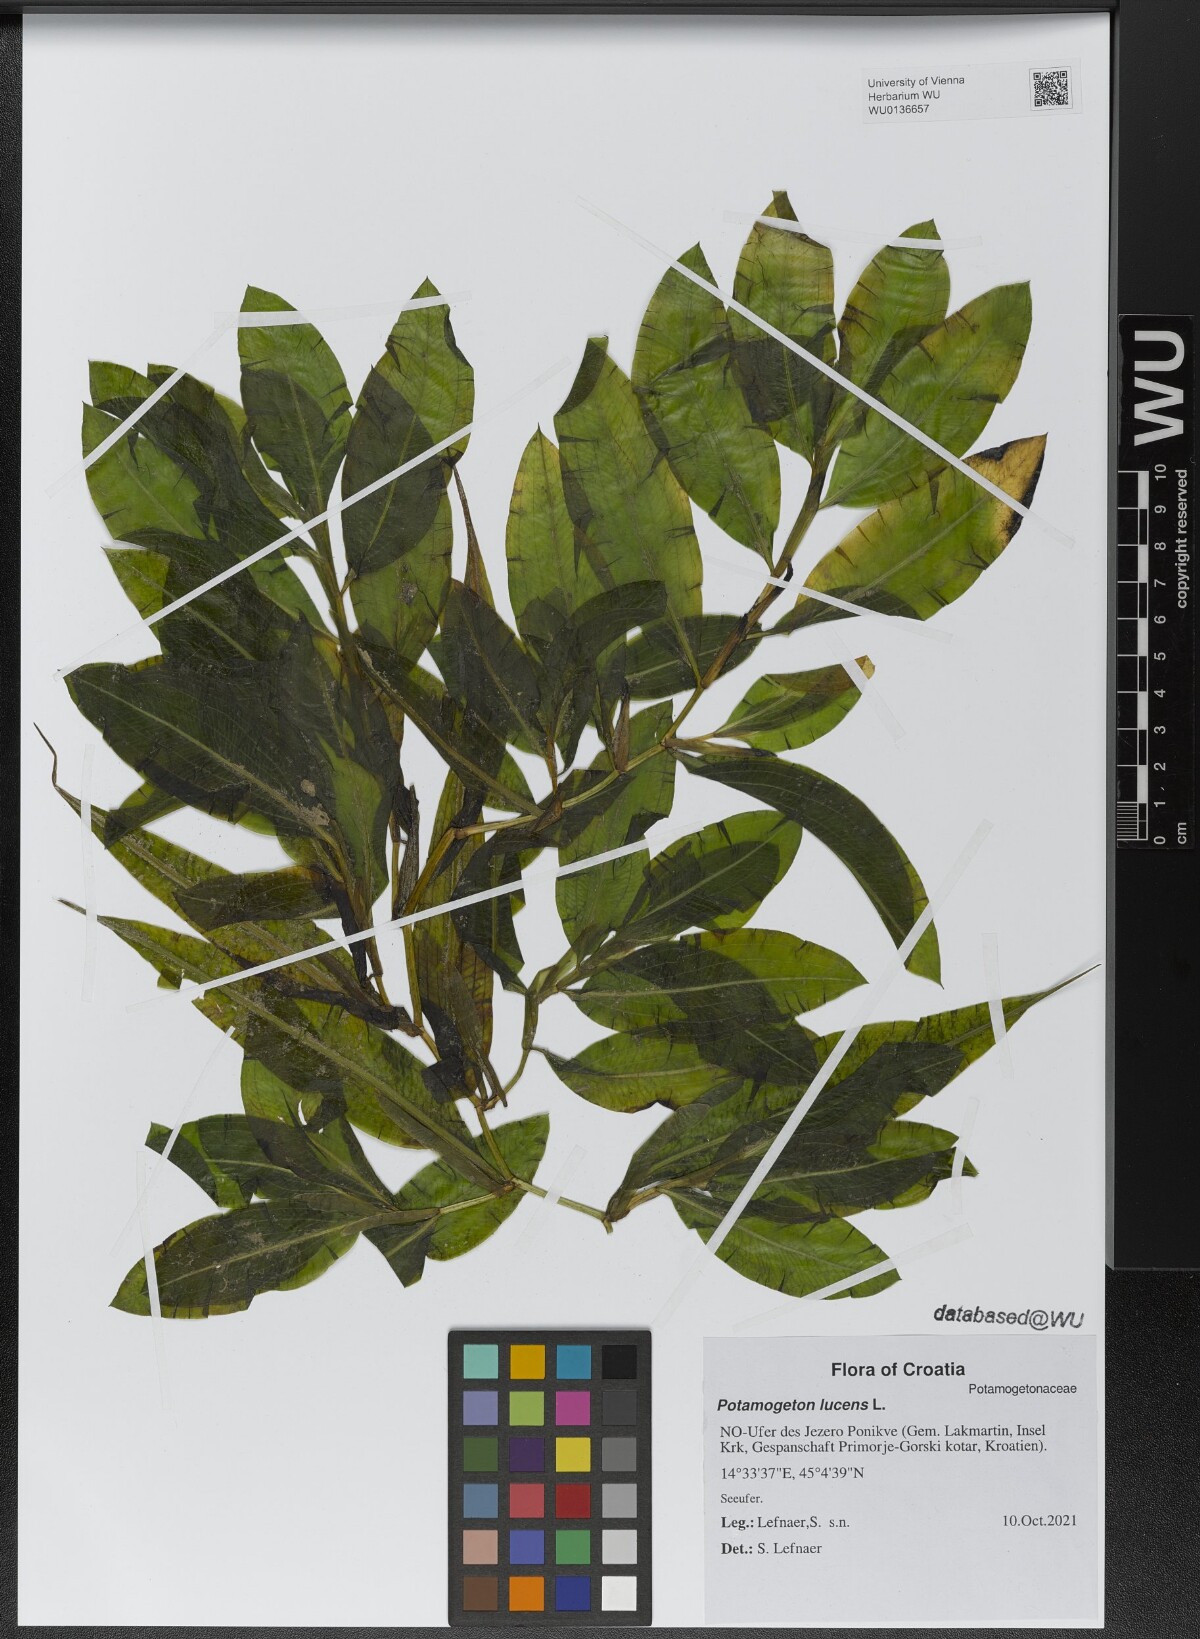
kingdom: Plantae
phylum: Tracheophyta
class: Liliopsida
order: Alismatales
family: Potamogetonaceae
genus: Potamogeton
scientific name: Potamogeton lucens
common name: Shining pondweed
